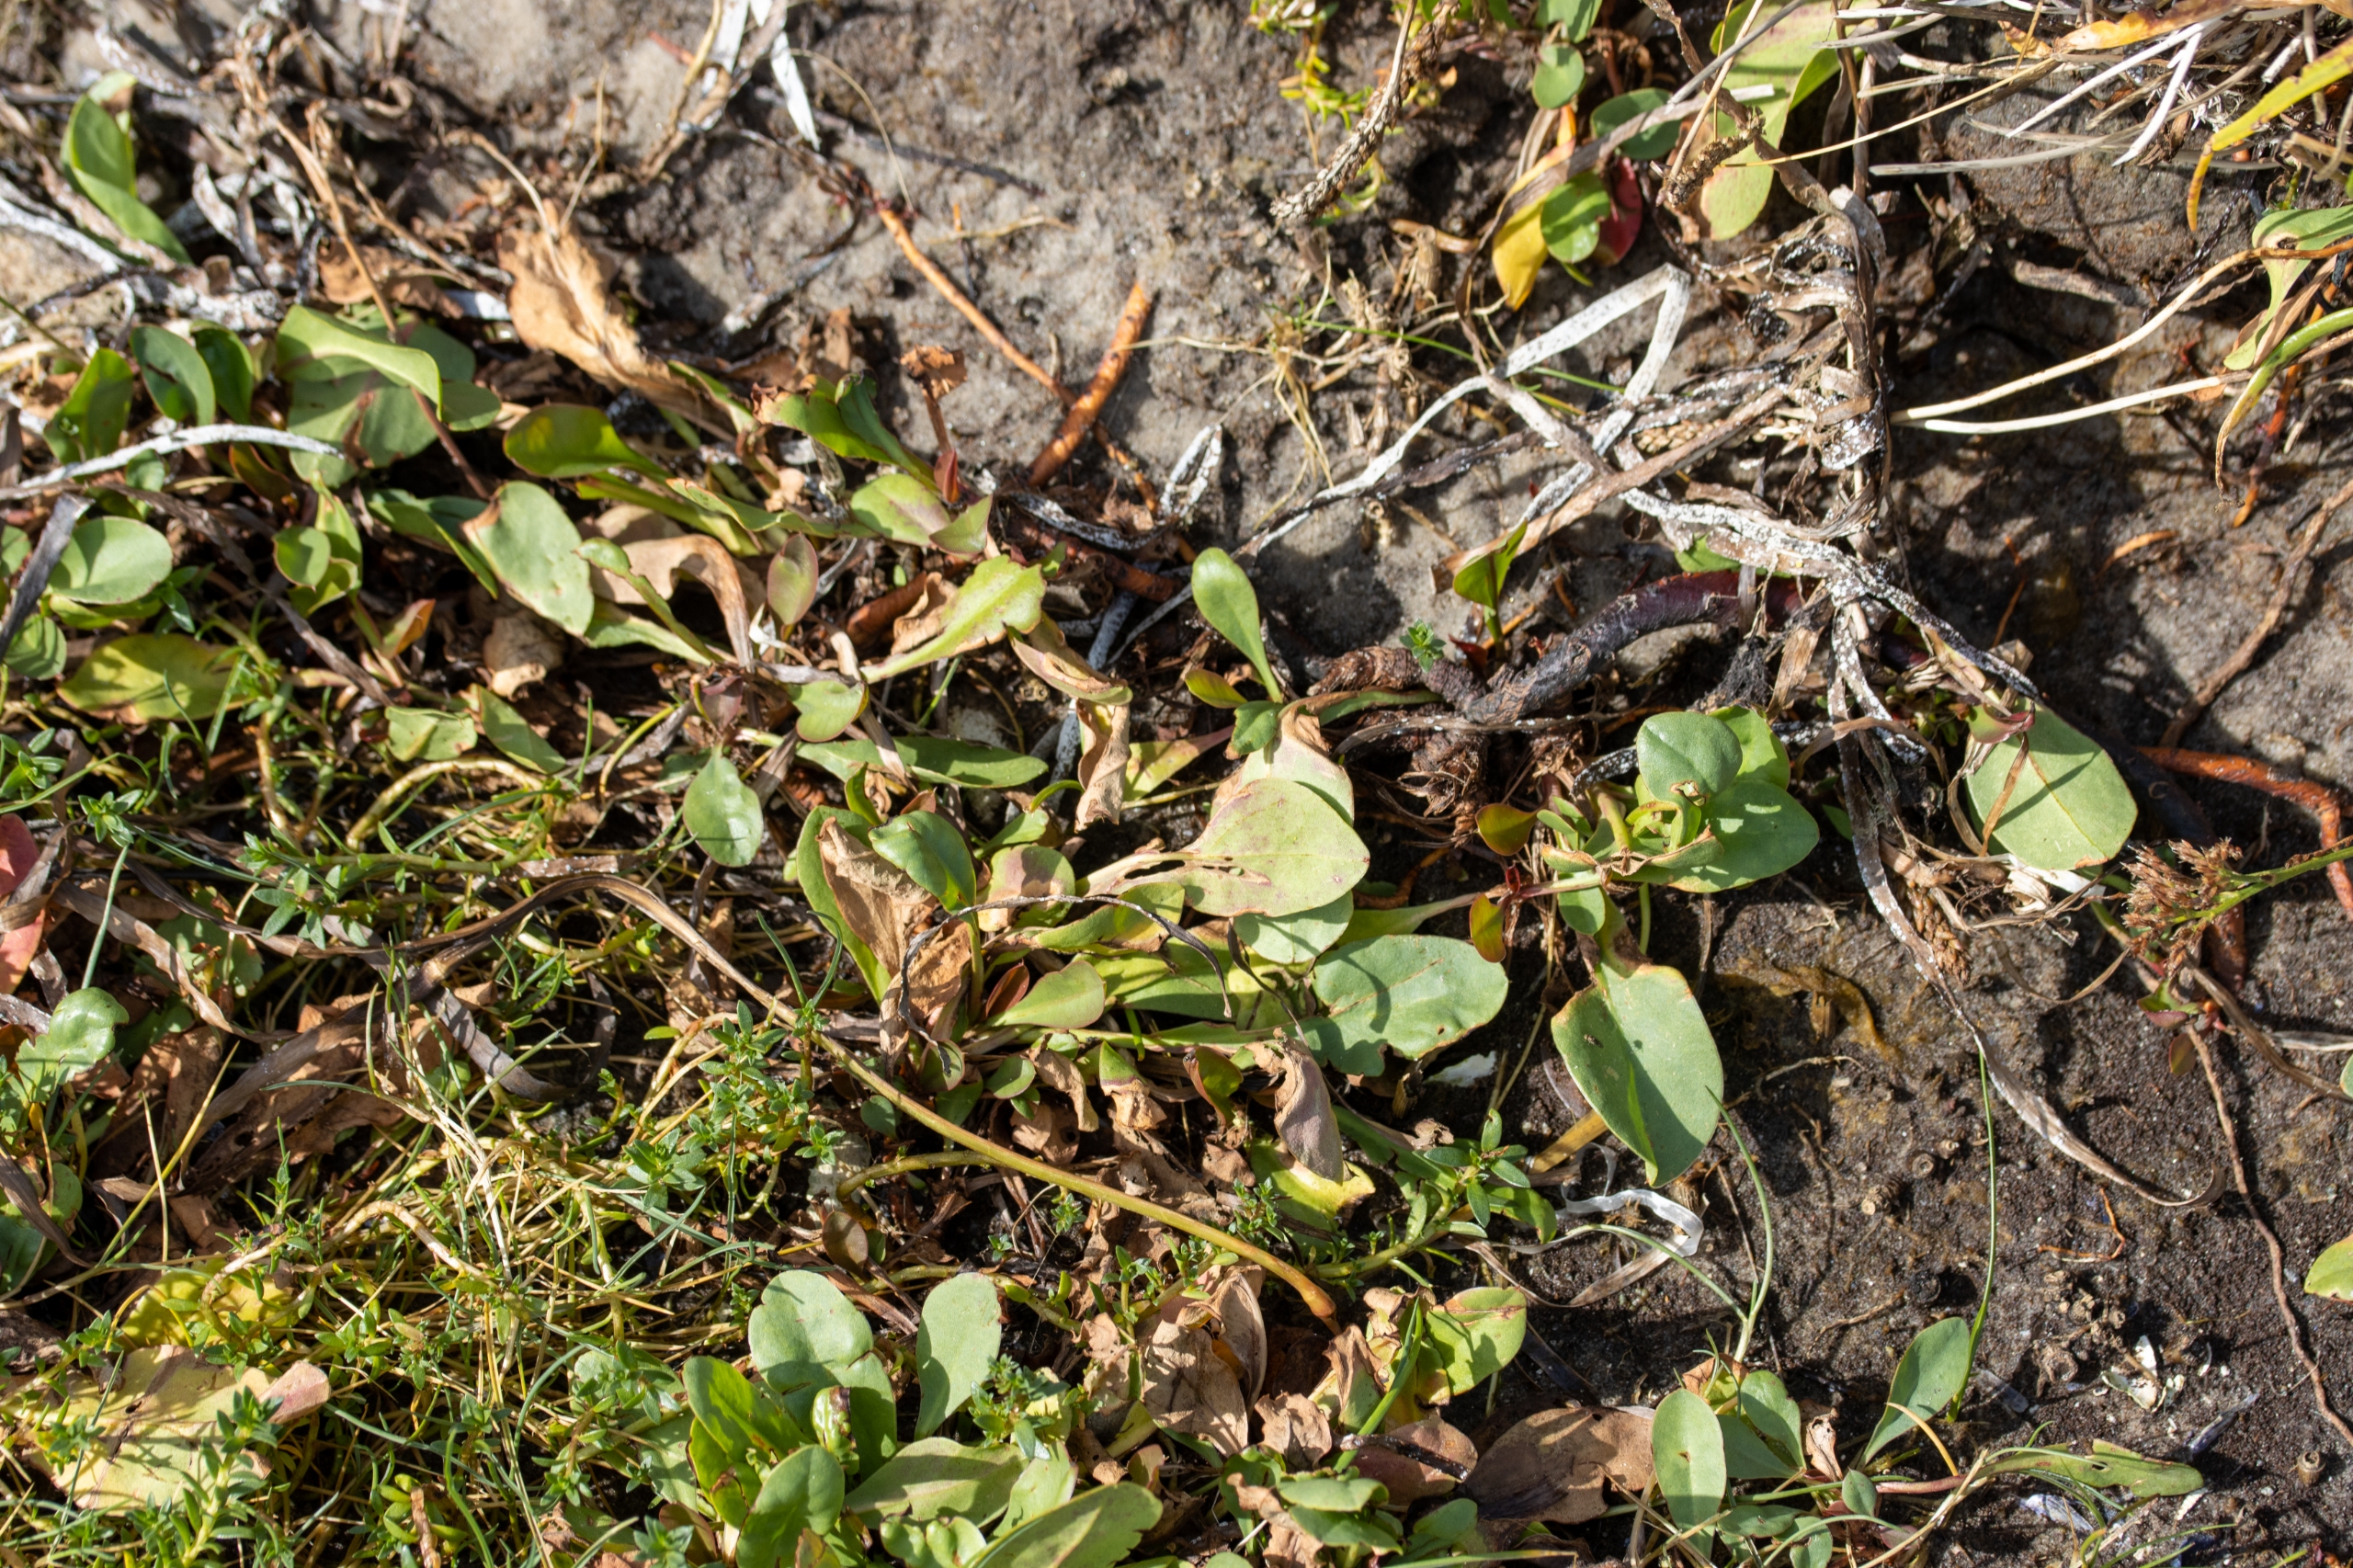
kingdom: Plantae
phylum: Tracheophyta
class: Magnoliopsida
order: Caryophyllales
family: Plumbaginaceae
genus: Limonium
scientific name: Limonium vulgare
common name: Tætblomstret hindebæger
